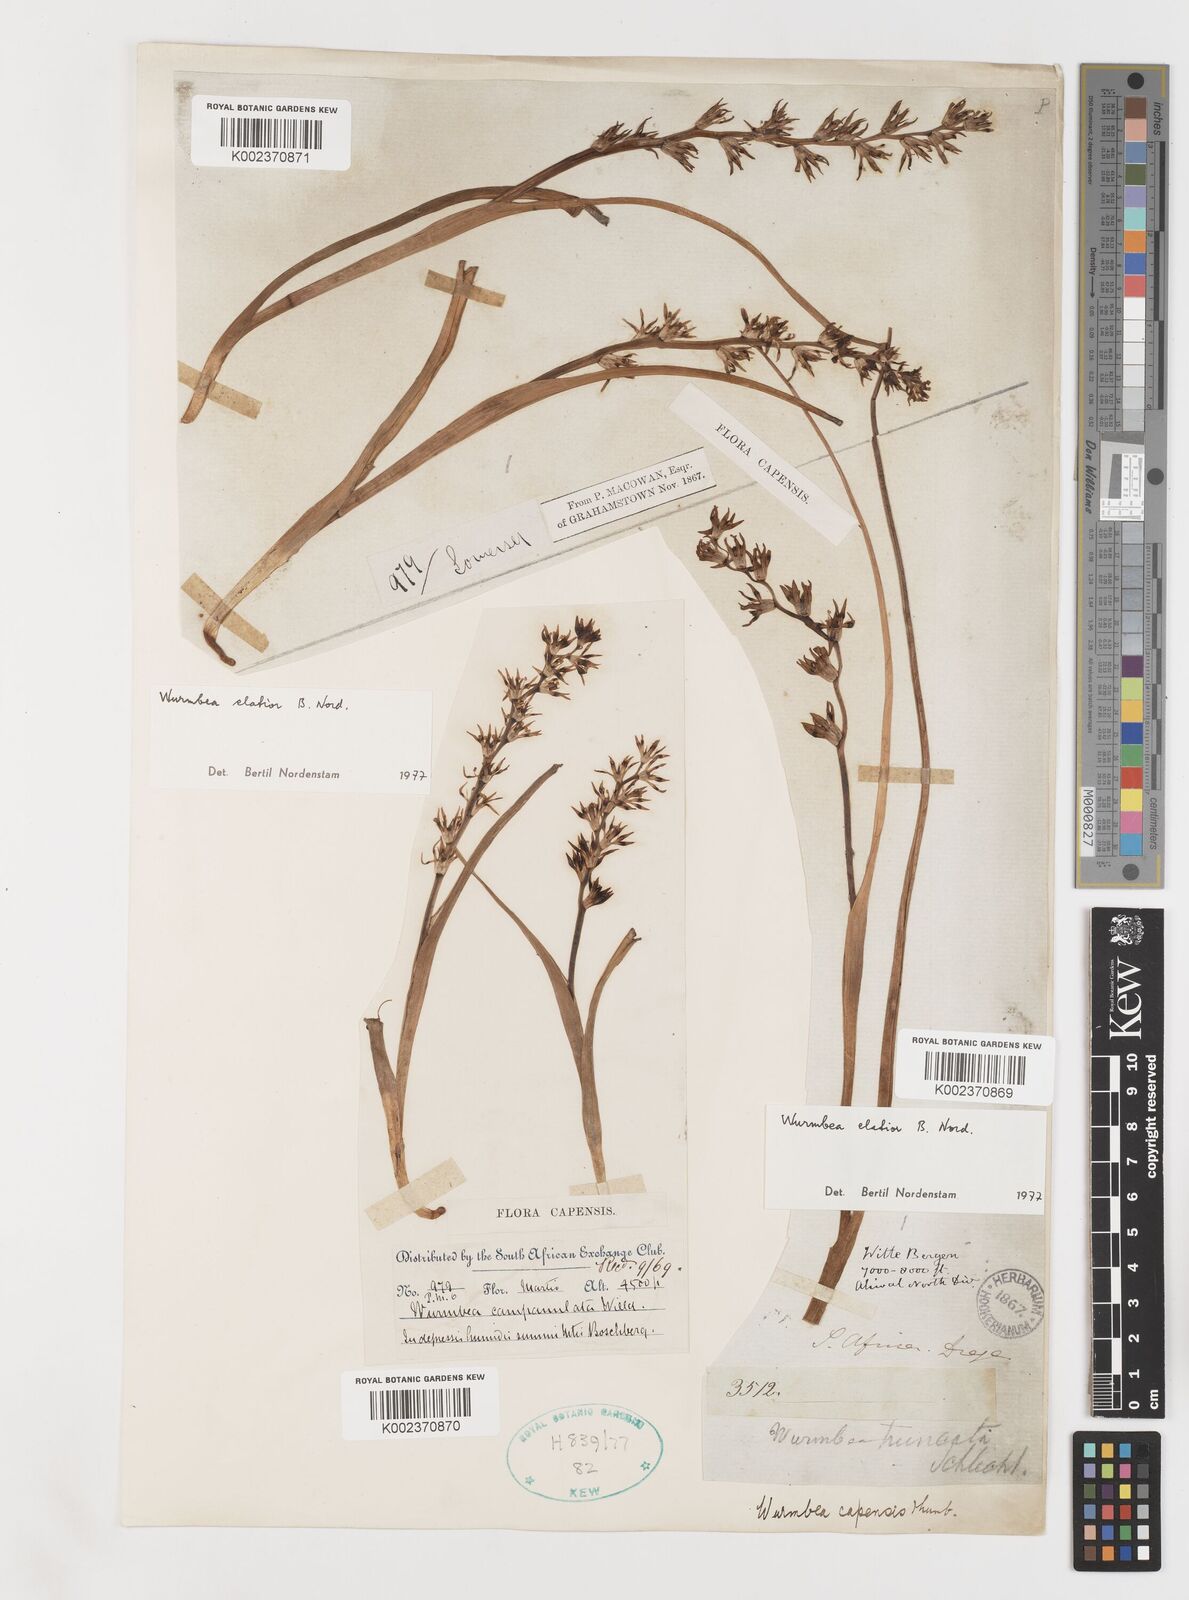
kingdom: Plantae
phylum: Tracheophyta
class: Liliopsida
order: Liliales
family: Colchicaceae
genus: Wurmbea
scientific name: Wurmbea elatior
